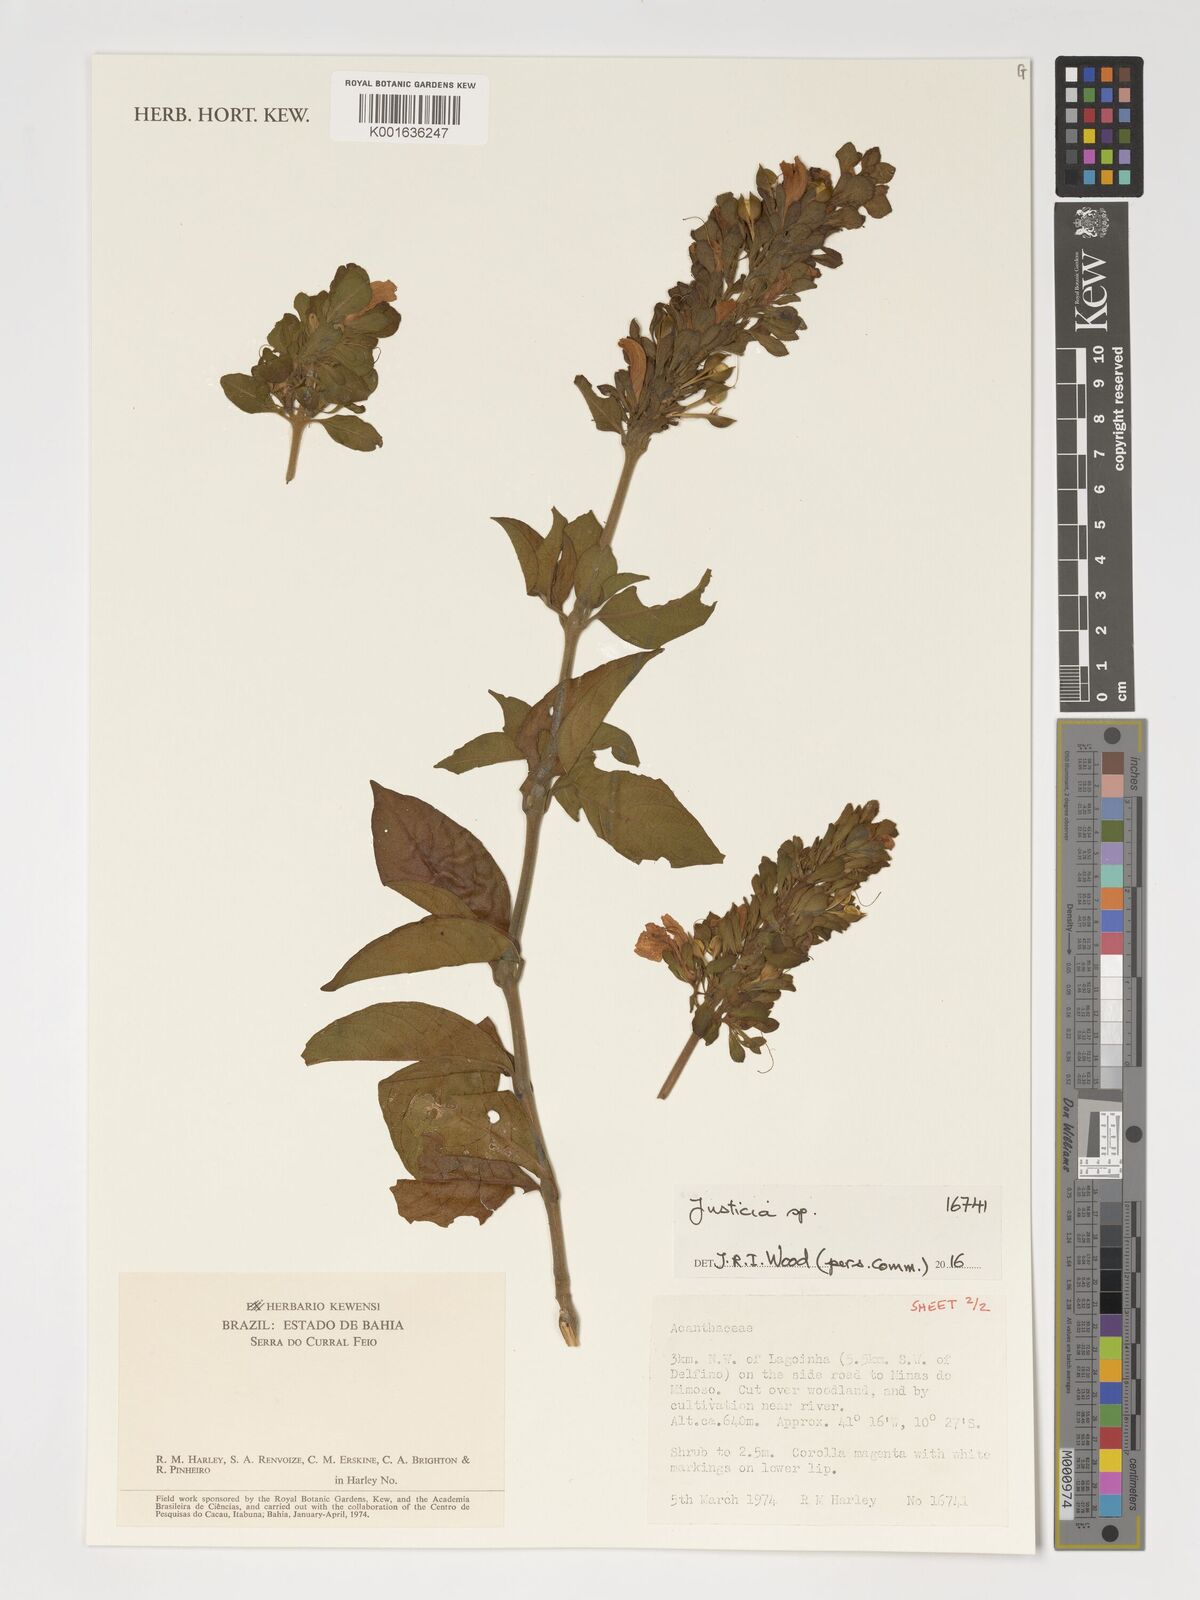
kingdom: Plantae
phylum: Tracheophyta
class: Magnoliopsida
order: Lamiales
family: Acanthaceae
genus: Justicia
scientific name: Justicia
